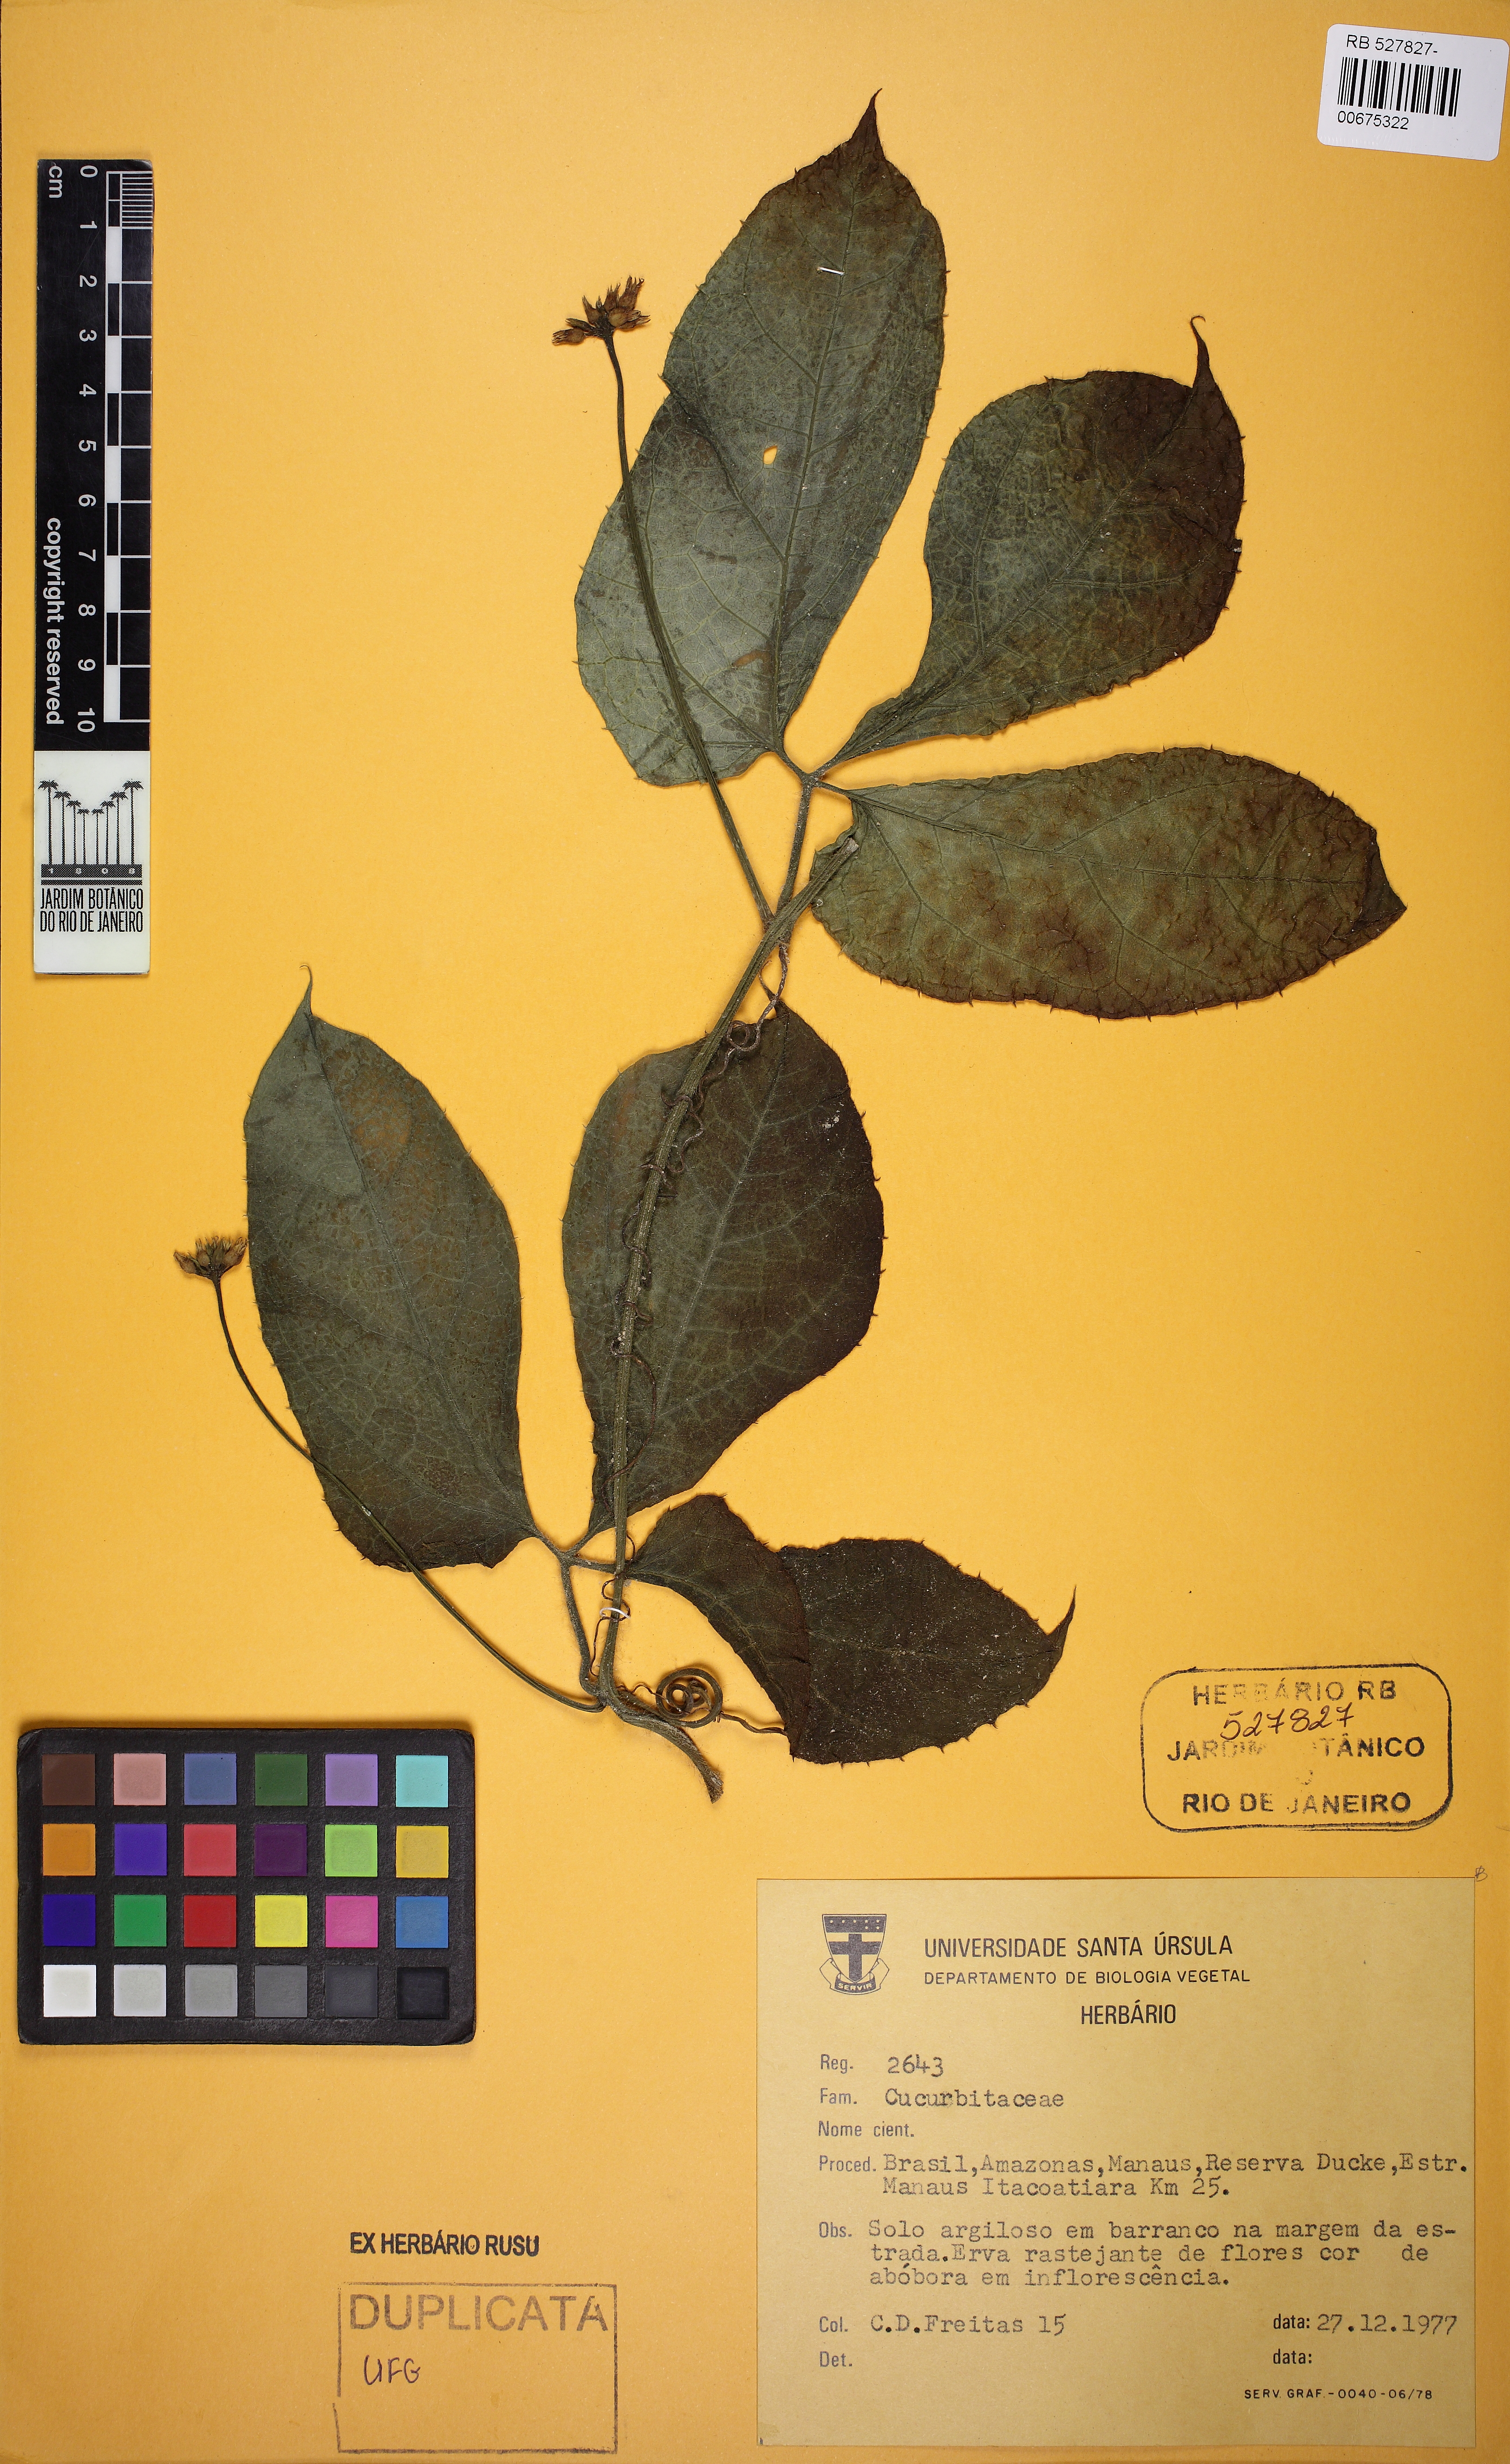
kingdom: Plantae
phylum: Tracheophyta
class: Magnoliopsida
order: Cucurbitales
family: Cucurbitaceae
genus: Gurania
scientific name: Gurania bignoniacea
